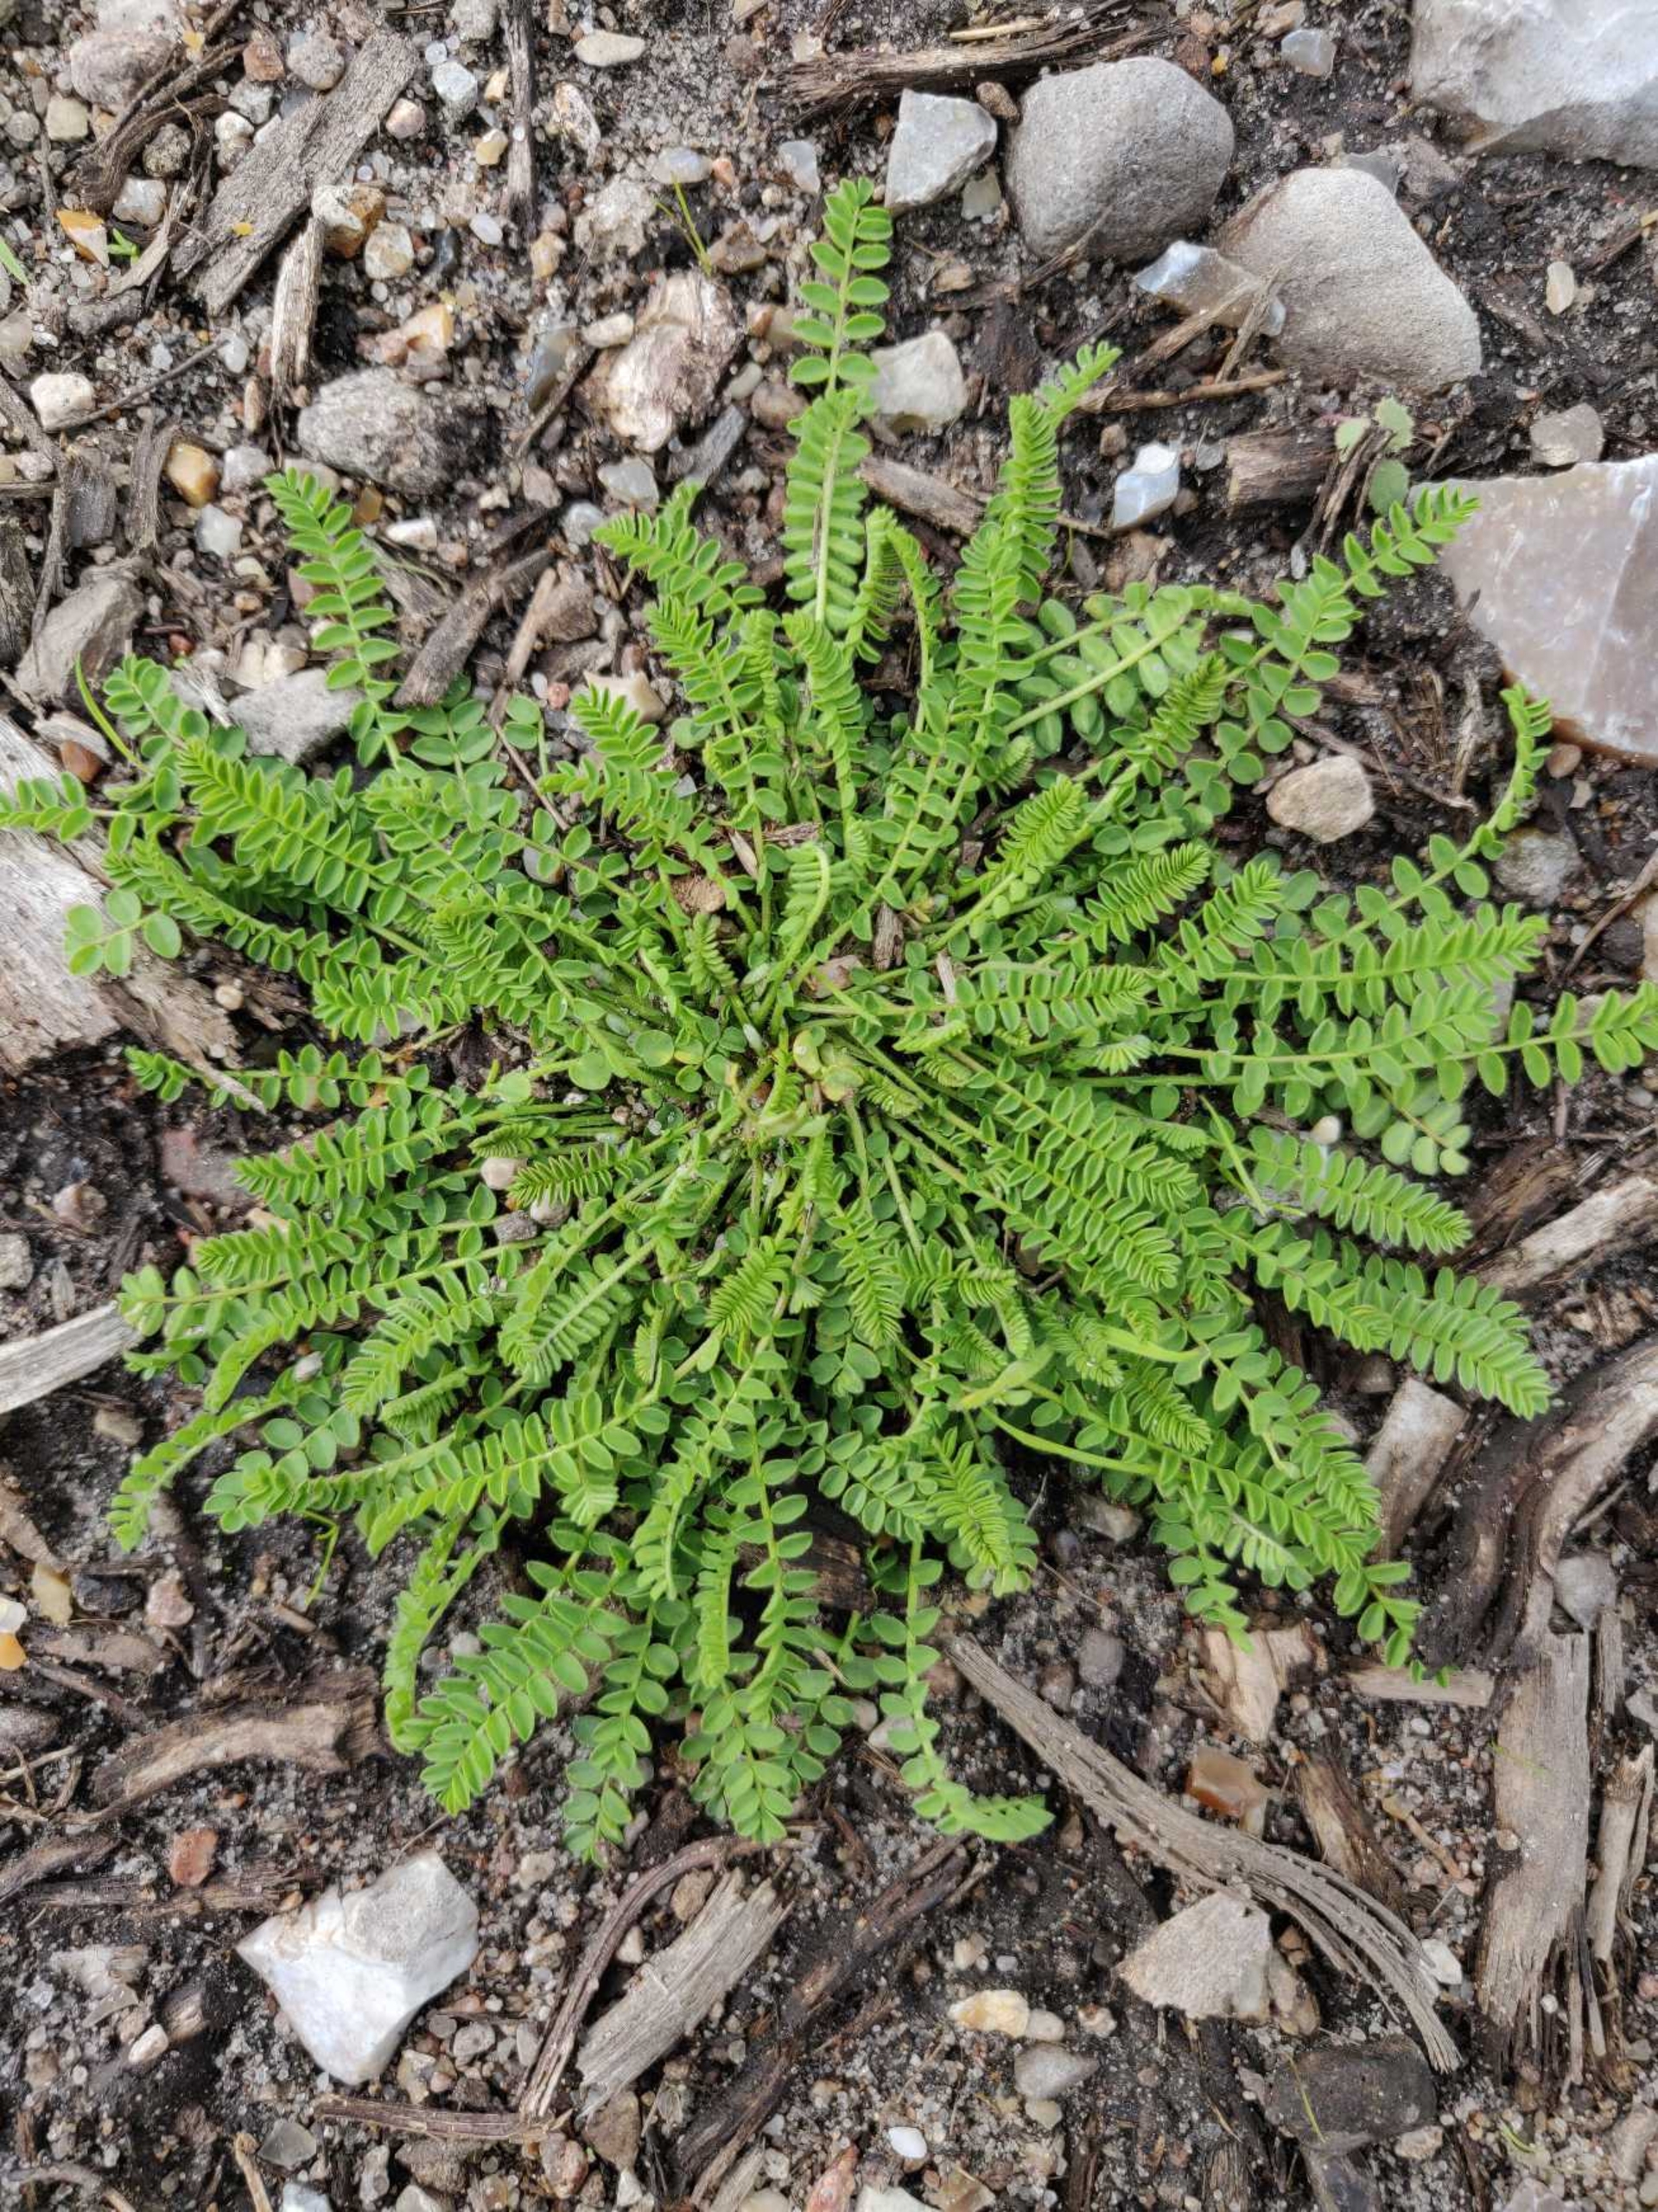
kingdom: Plantae
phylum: Tracheophyta
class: Magnoliopsida
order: Fabales
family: Fabaceae
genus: Ornithopus
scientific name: Ornithopus perpusillus
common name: Liden fugleklo
